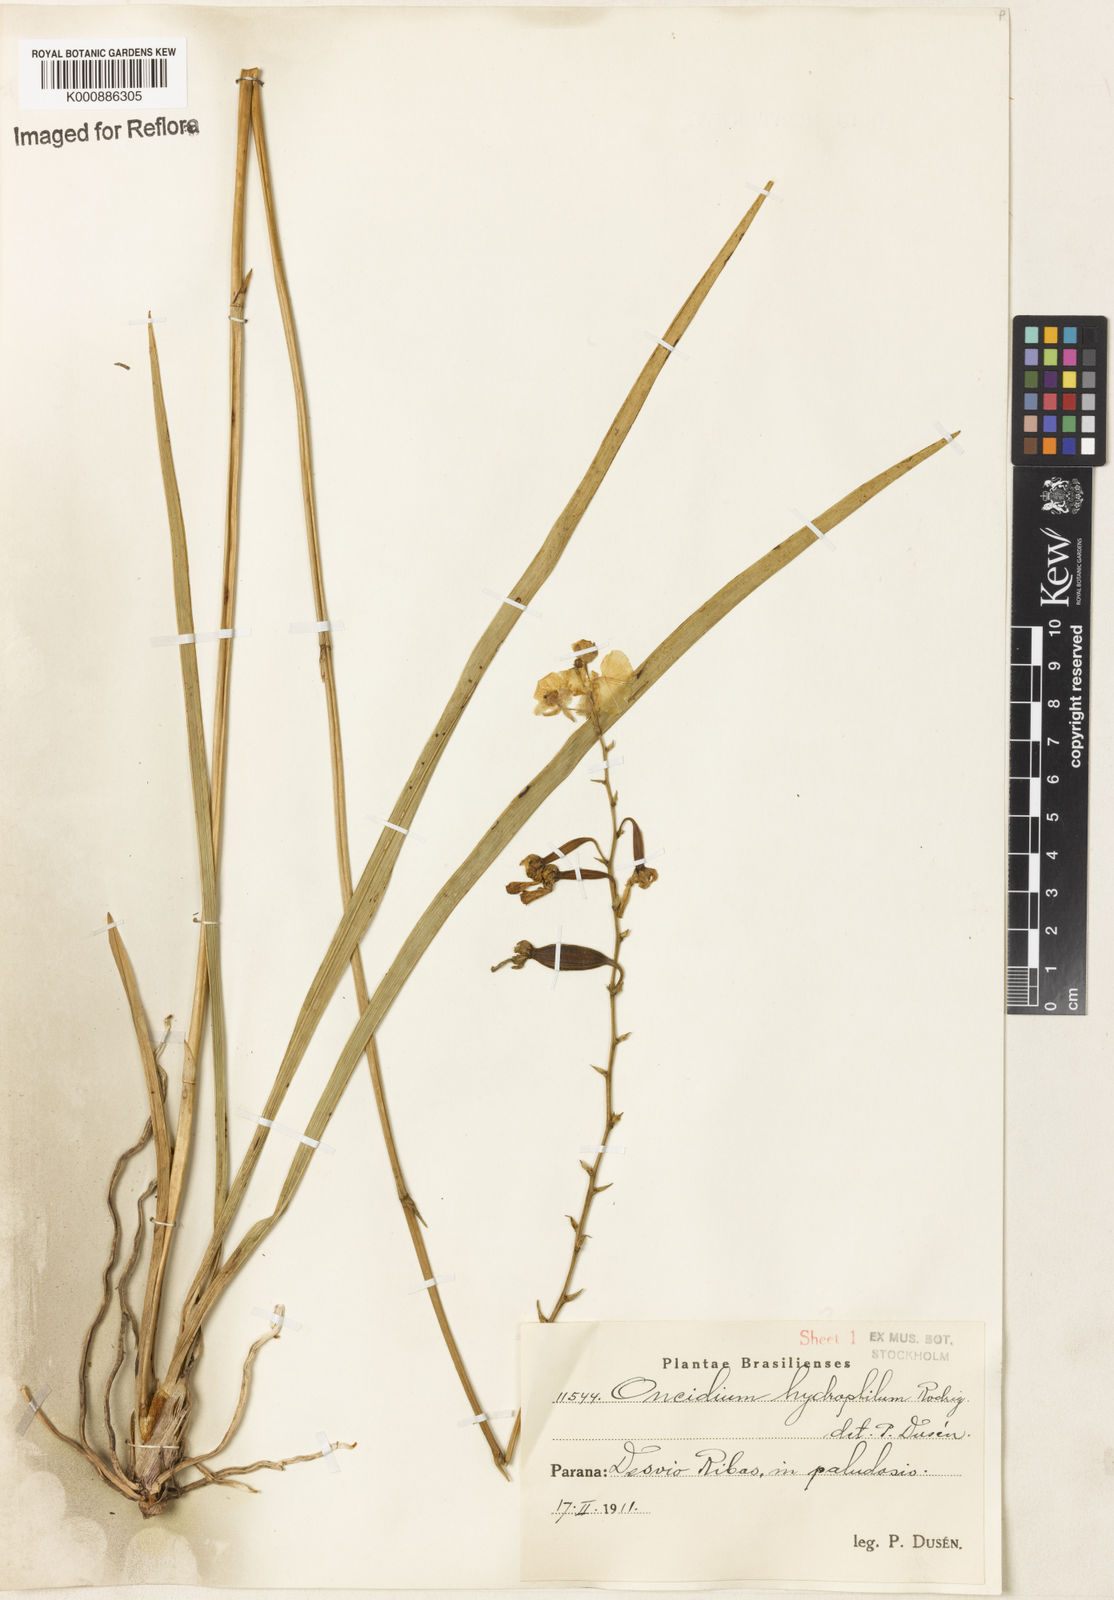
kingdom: Plantae
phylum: Tracheophyta
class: Liliopsida
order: Asparagales
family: Orchidaceae
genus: Gomesa
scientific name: Gomesa hydrophila
